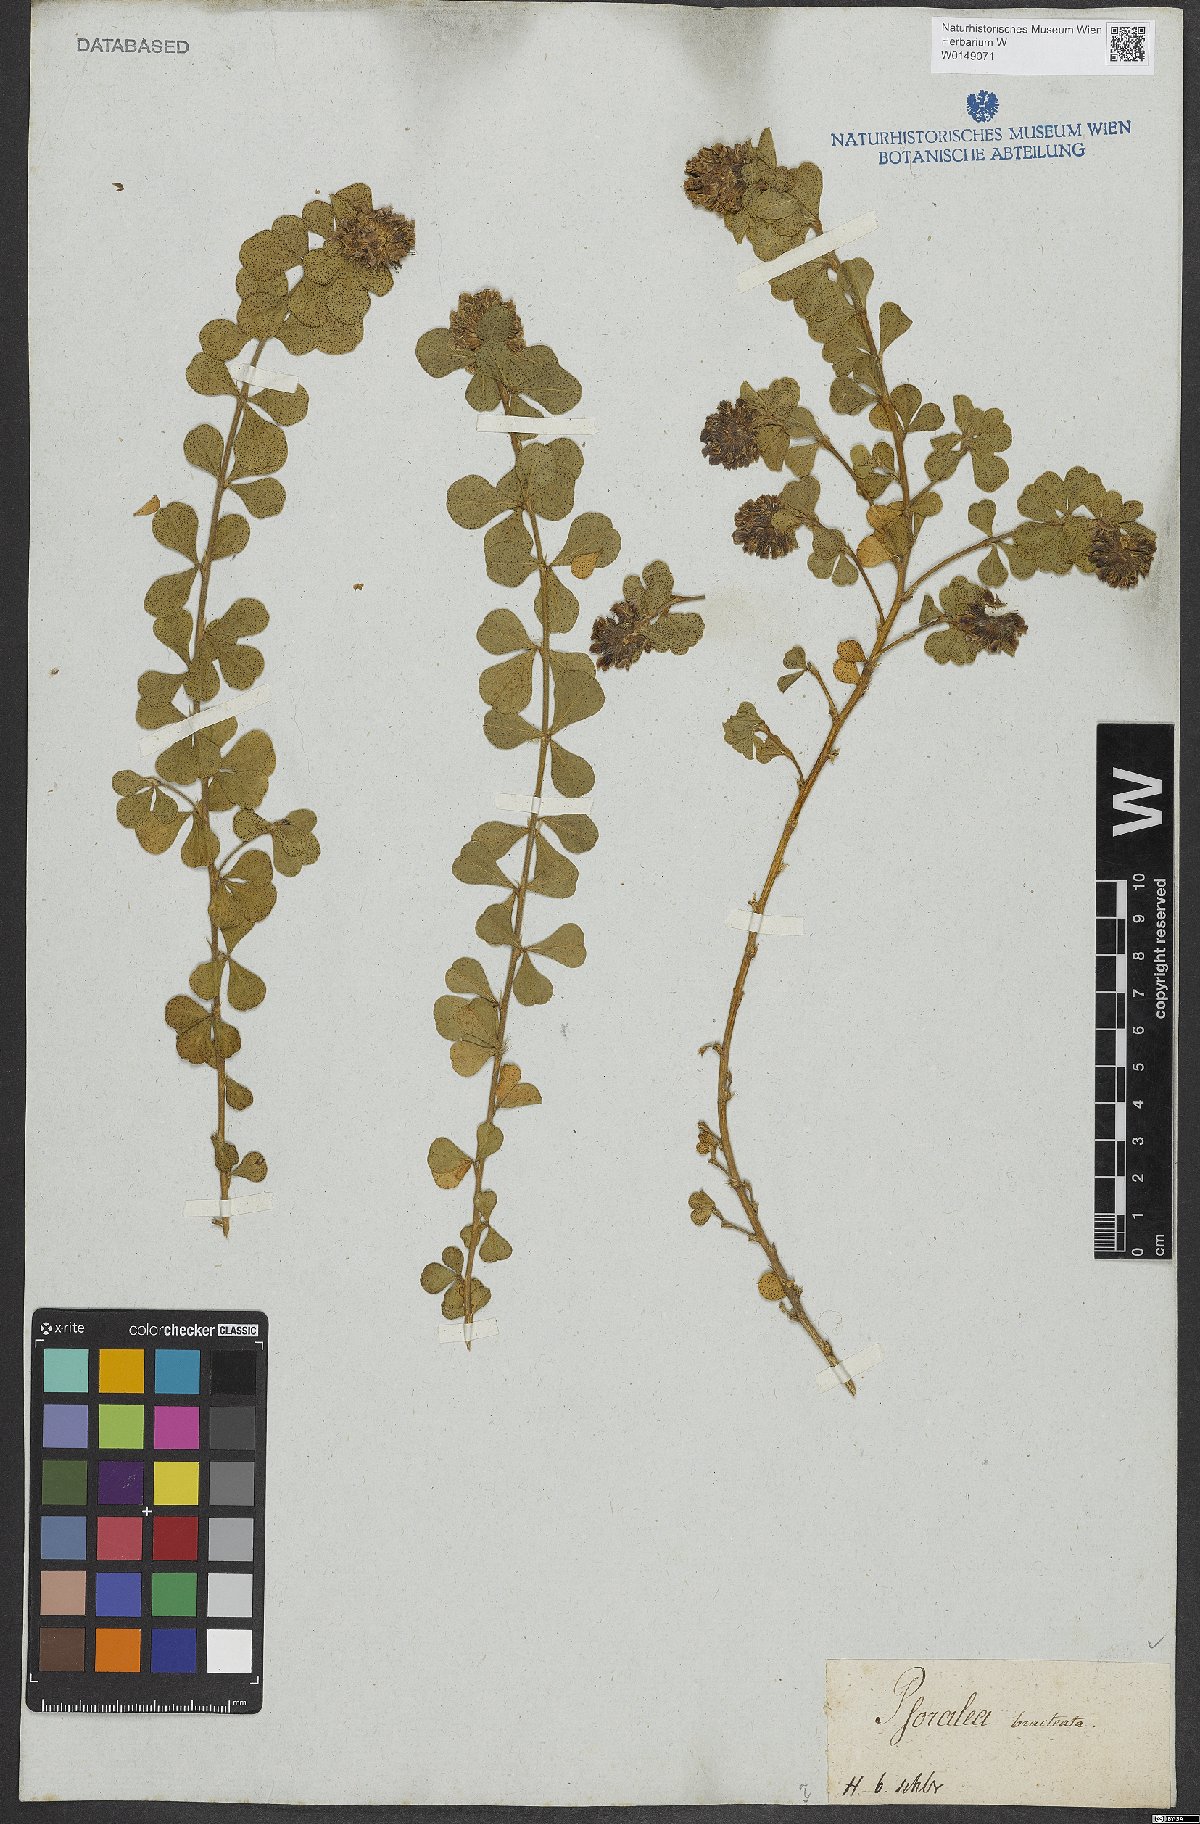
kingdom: Plantae
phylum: Tracheophyta
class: Magnoliopsida
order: Fabales
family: Fabaceae
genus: Psoralea
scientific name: Psoralea fruticans
